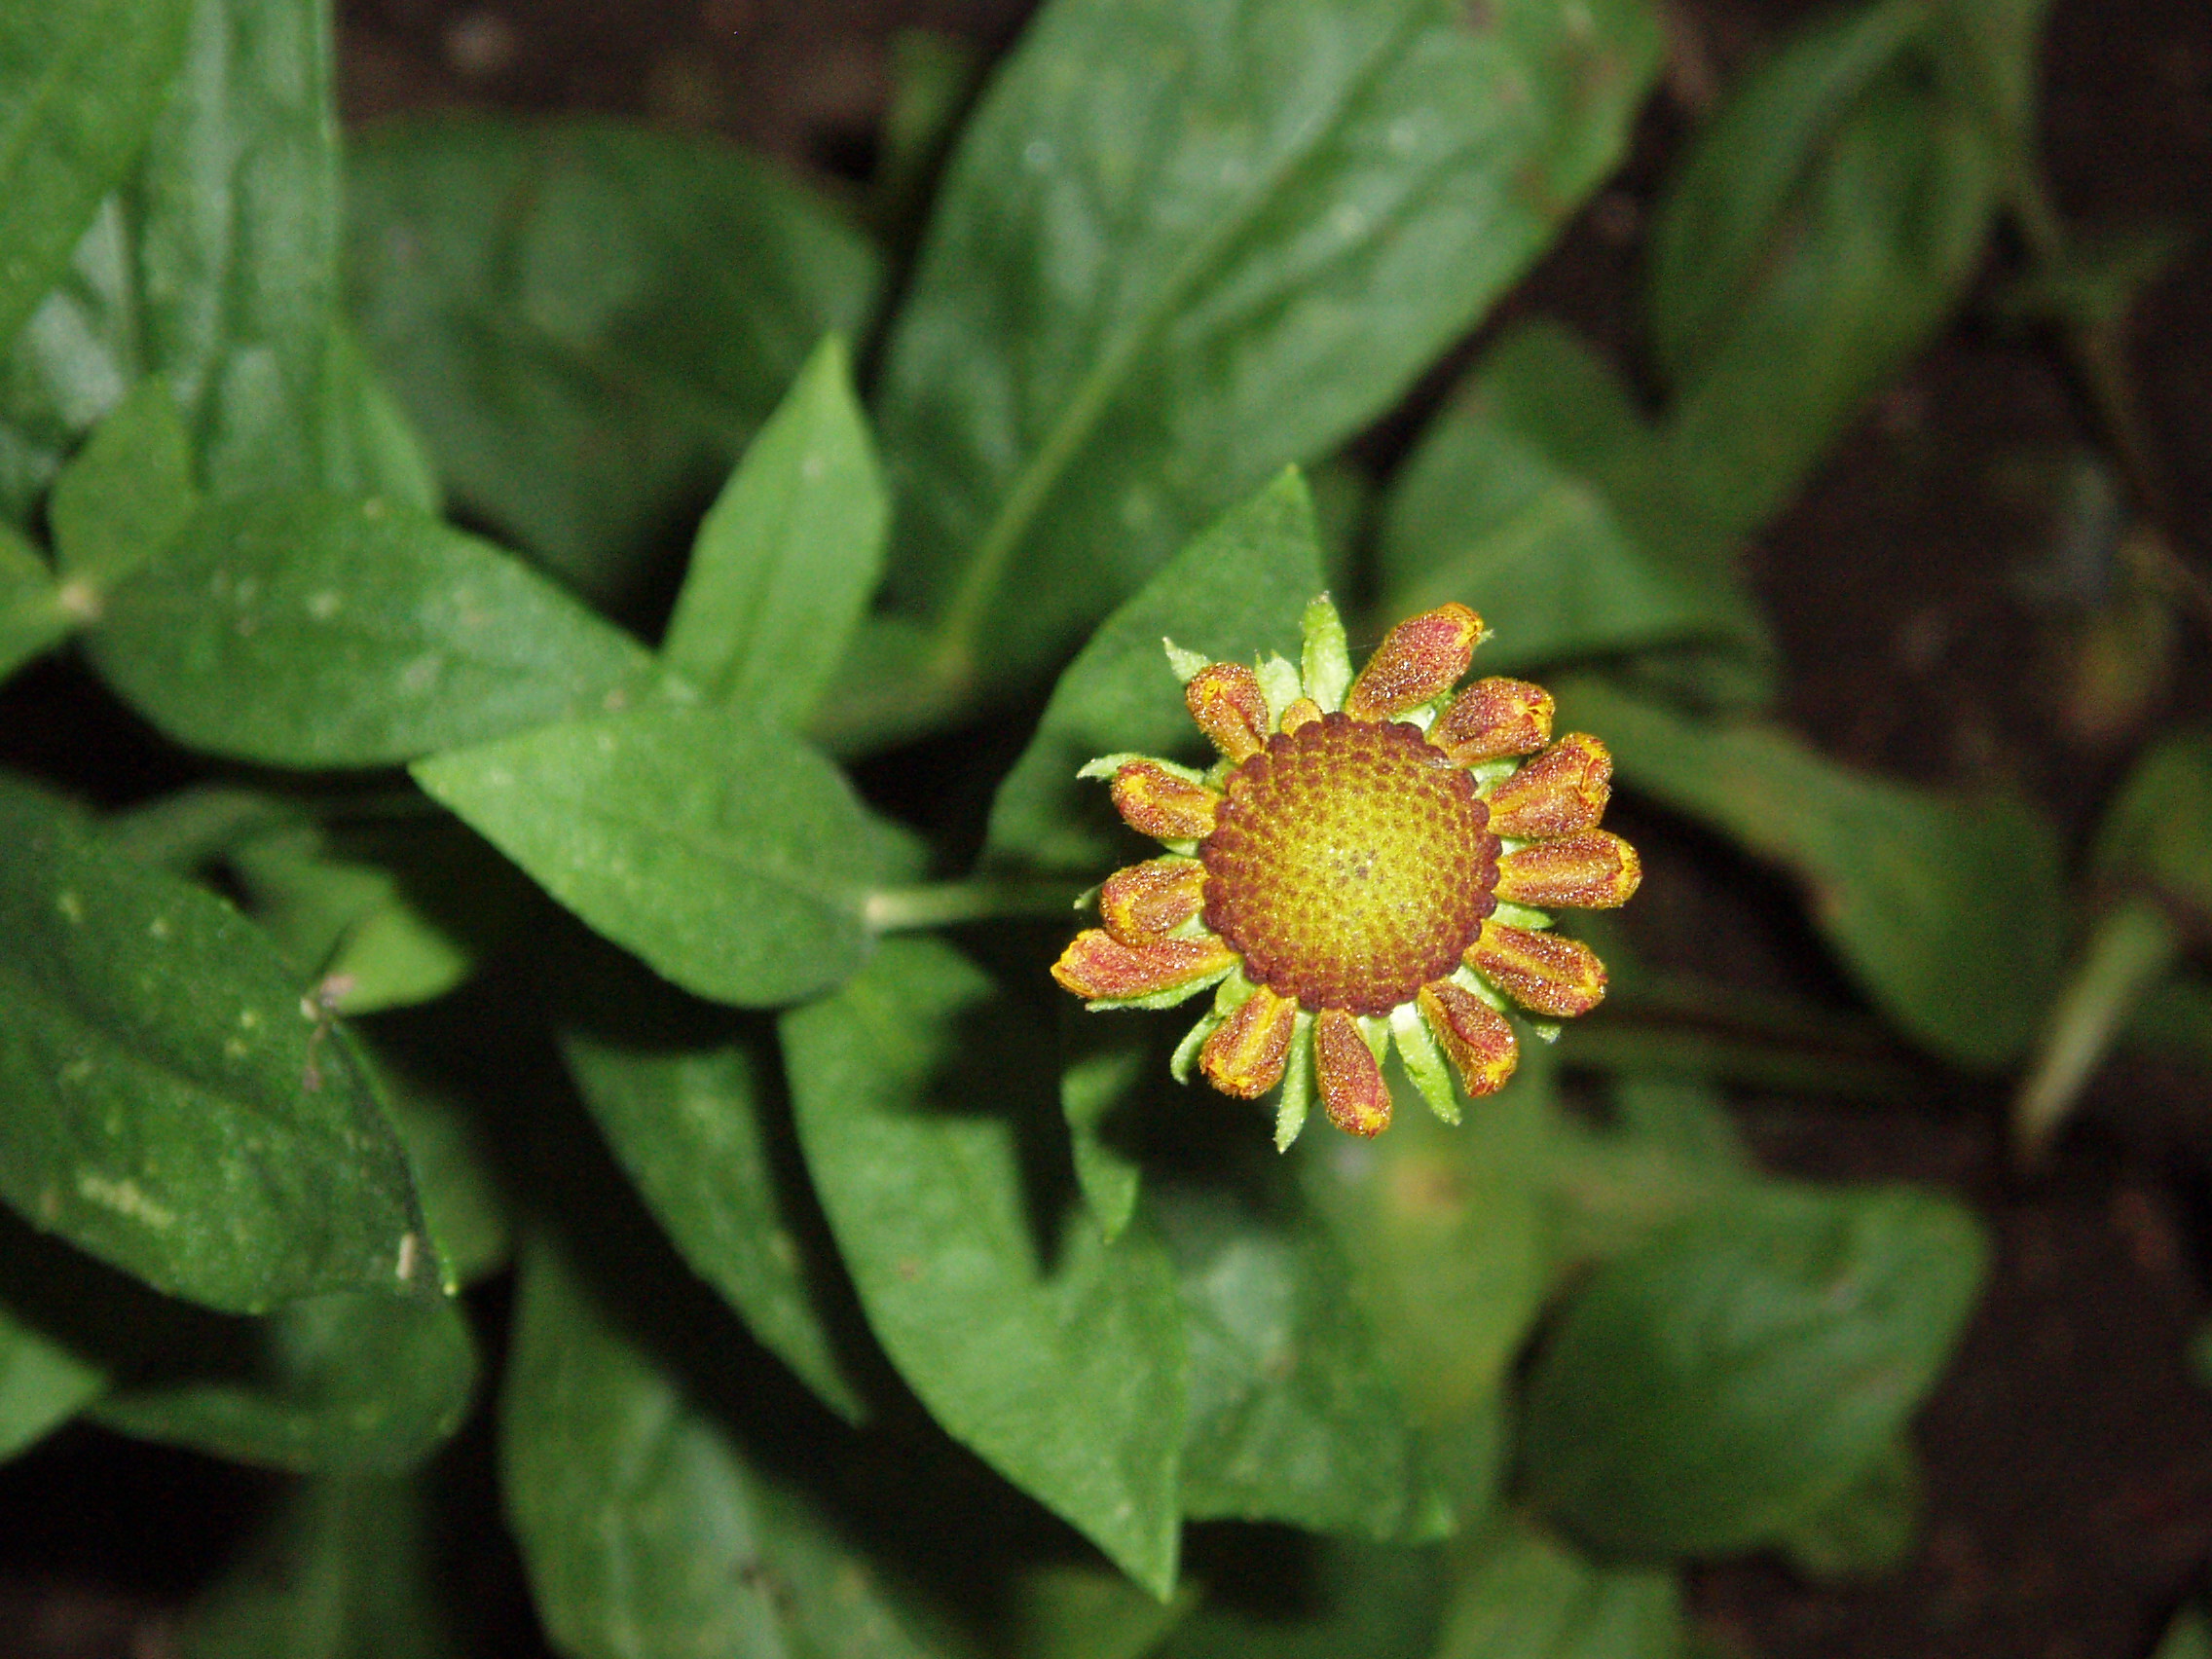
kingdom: Plantae
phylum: Tracheophyta
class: Magnoliopsida
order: Asterales
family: Asteraceae
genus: Helenium
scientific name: Helenium autumnale
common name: Sneezeweed
